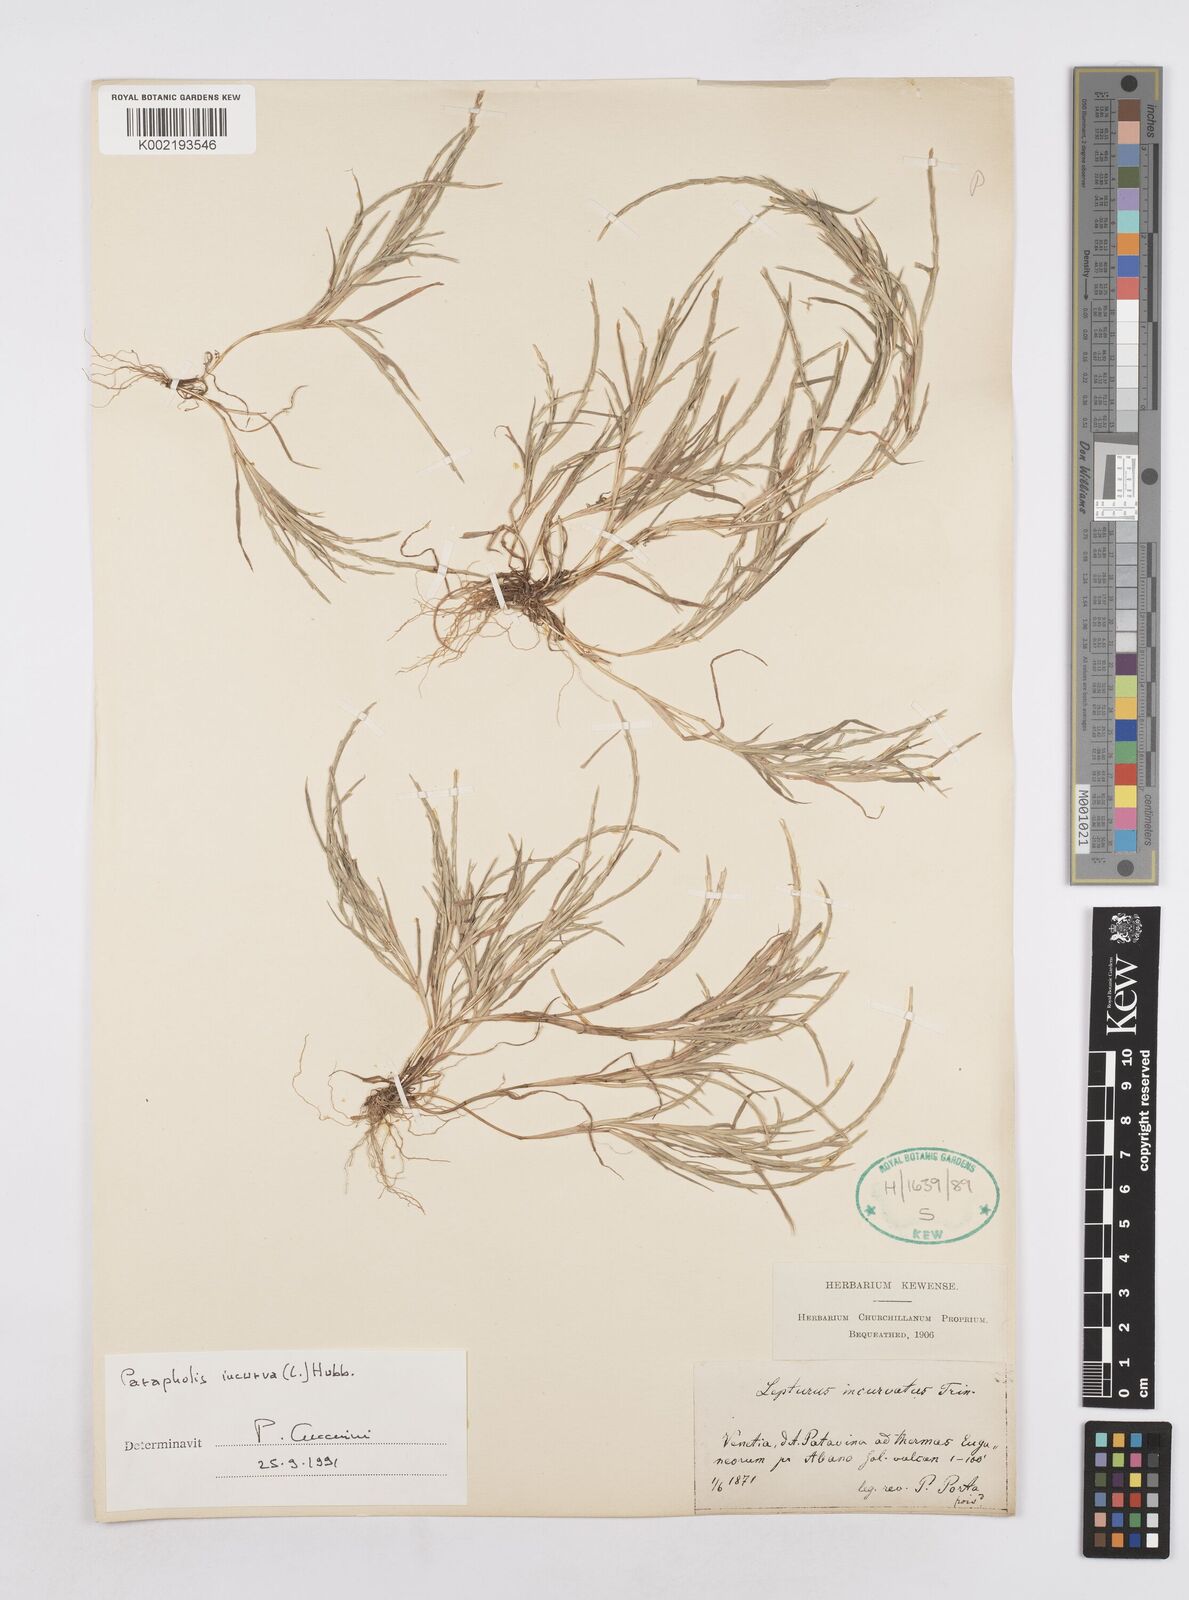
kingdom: Plantae
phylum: Tracheophyta
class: Liliopsida
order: Poales
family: Poaceae
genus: Parapholis
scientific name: Parapholis incurva
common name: Curved sicklegrass
